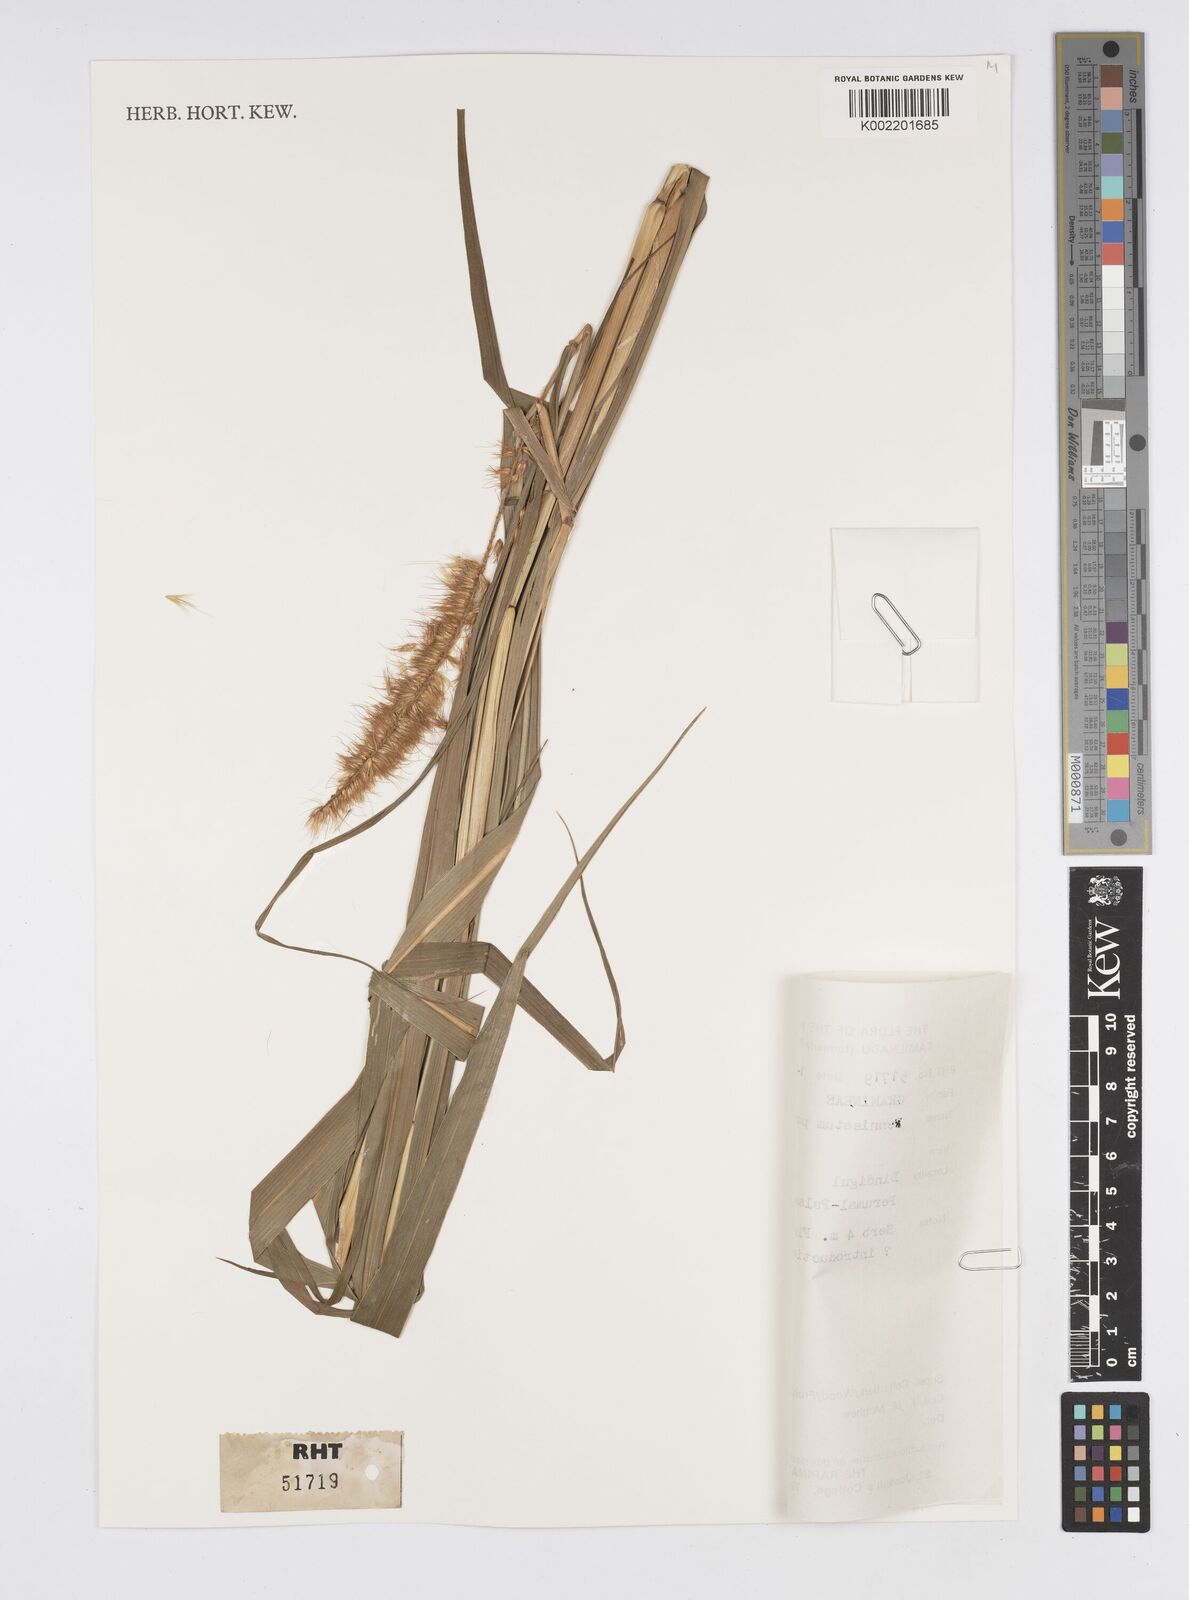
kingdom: Plantae
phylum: Tracheophyta
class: Liliopsida
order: Poales
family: Poaceae
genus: Cenchrus
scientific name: Cenchrus purpureus
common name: Elephant grass
